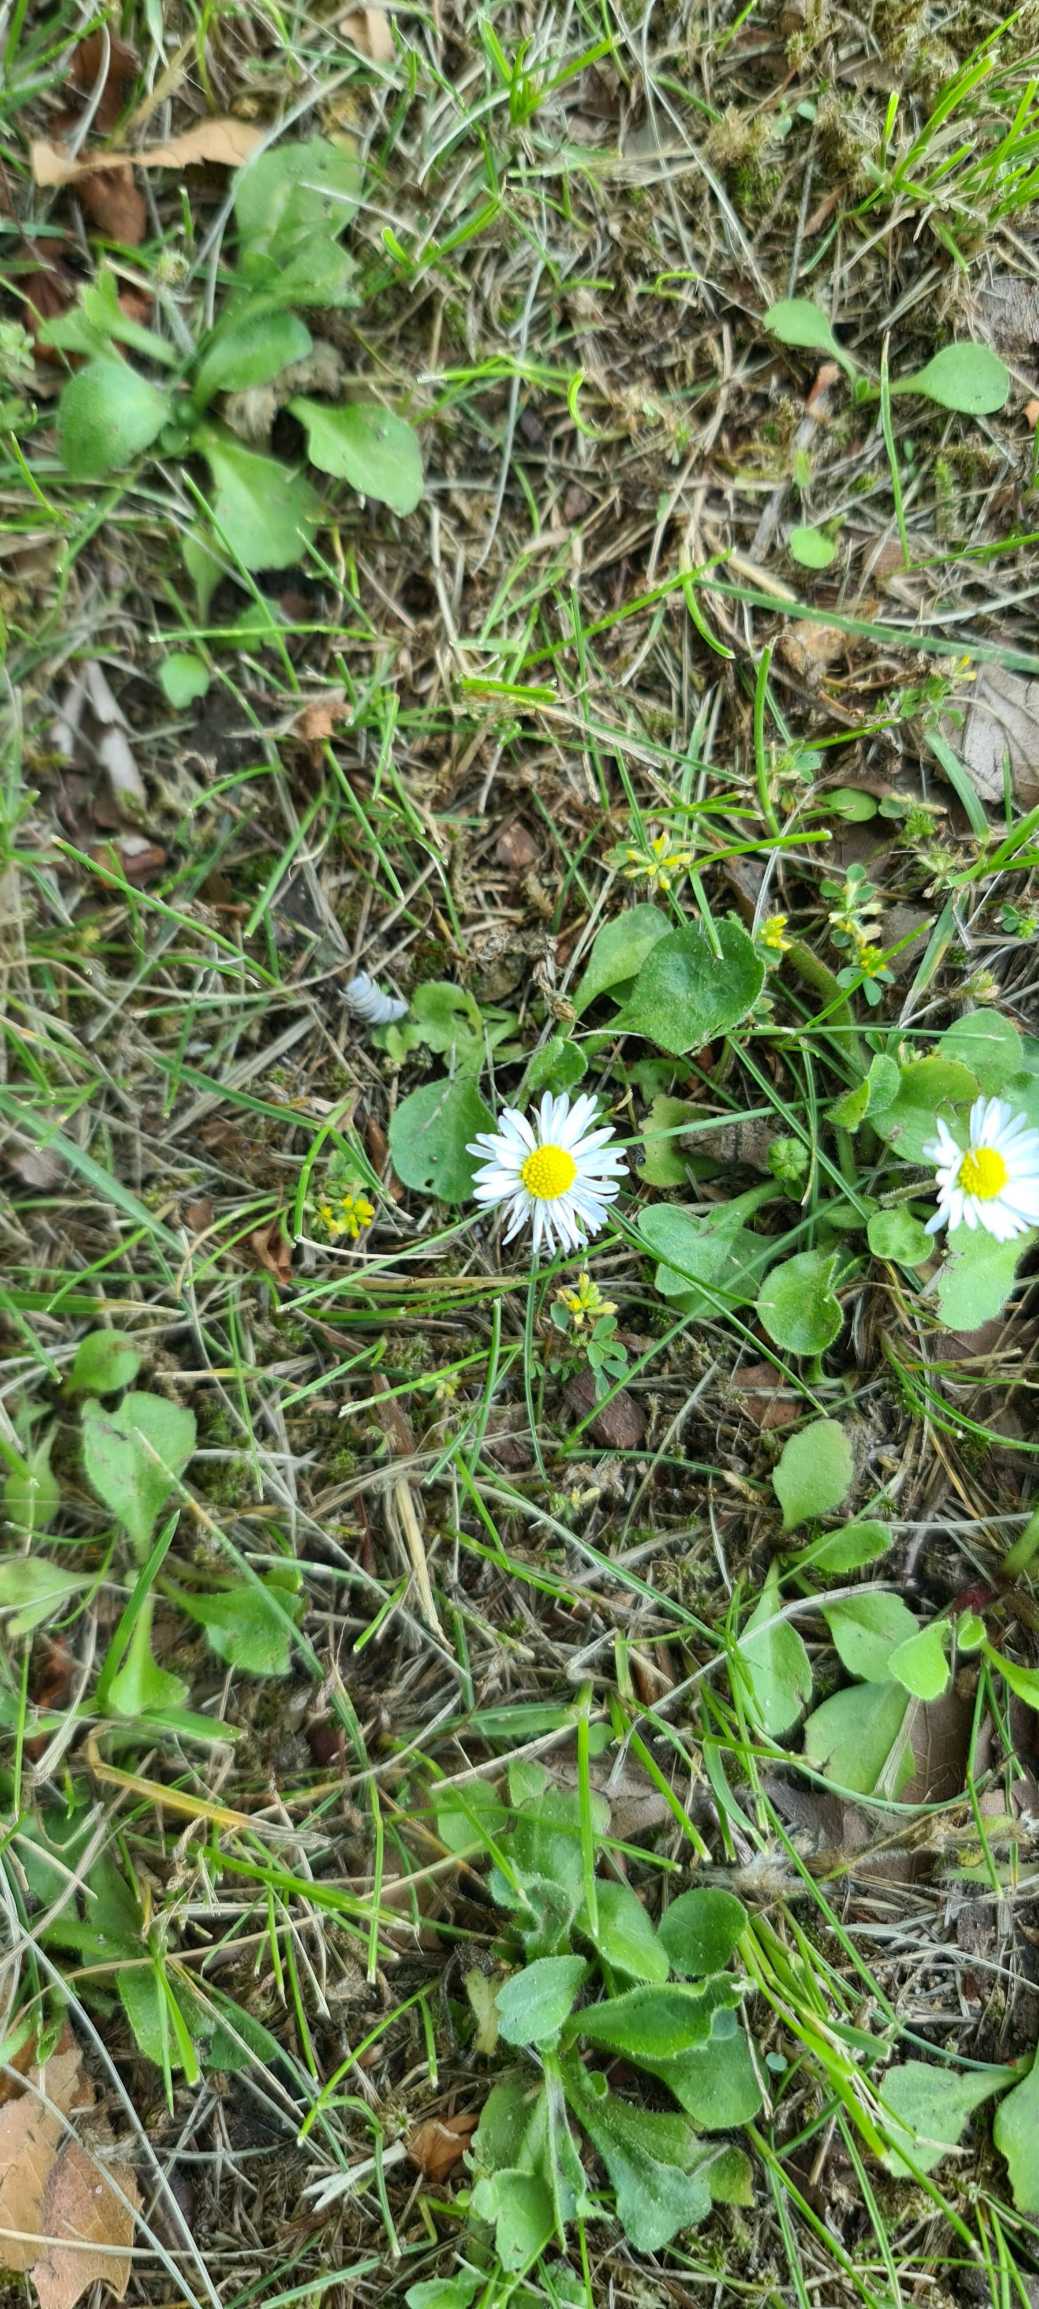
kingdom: Plantae
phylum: Tracheophyta
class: Magnoliopsida
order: Asterales
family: Asteraceae
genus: Bellis
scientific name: Bellis perennis
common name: Tusindfryd
